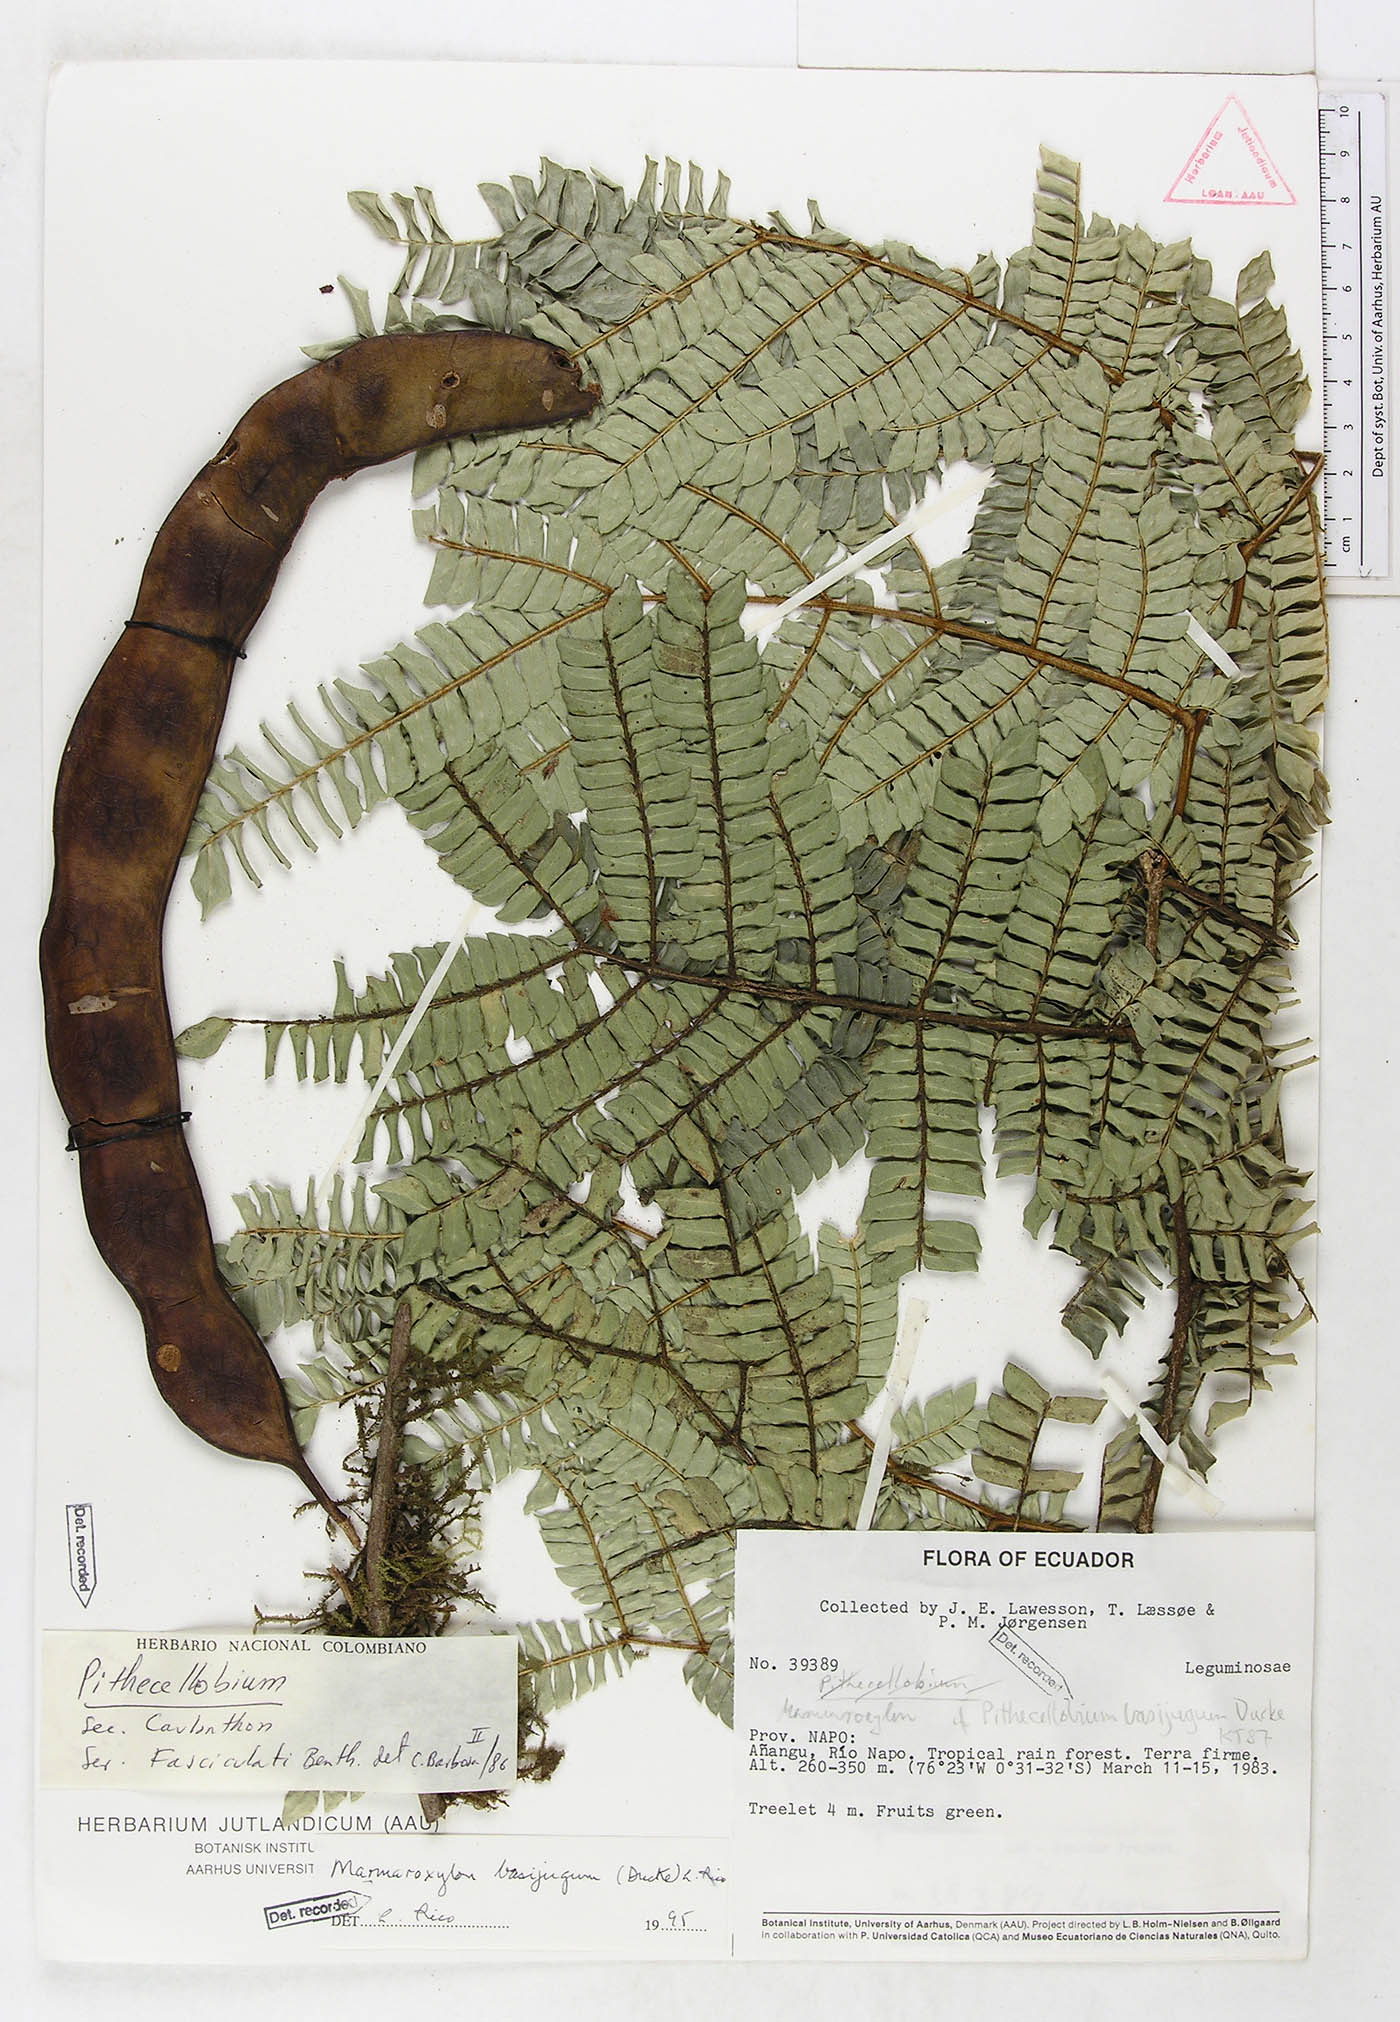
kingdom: Plantae
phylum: Tracheophyta
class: Magnoliopsida
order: Fabales
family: Fabaceae
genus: Zygia
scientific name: Zygia basijuga
